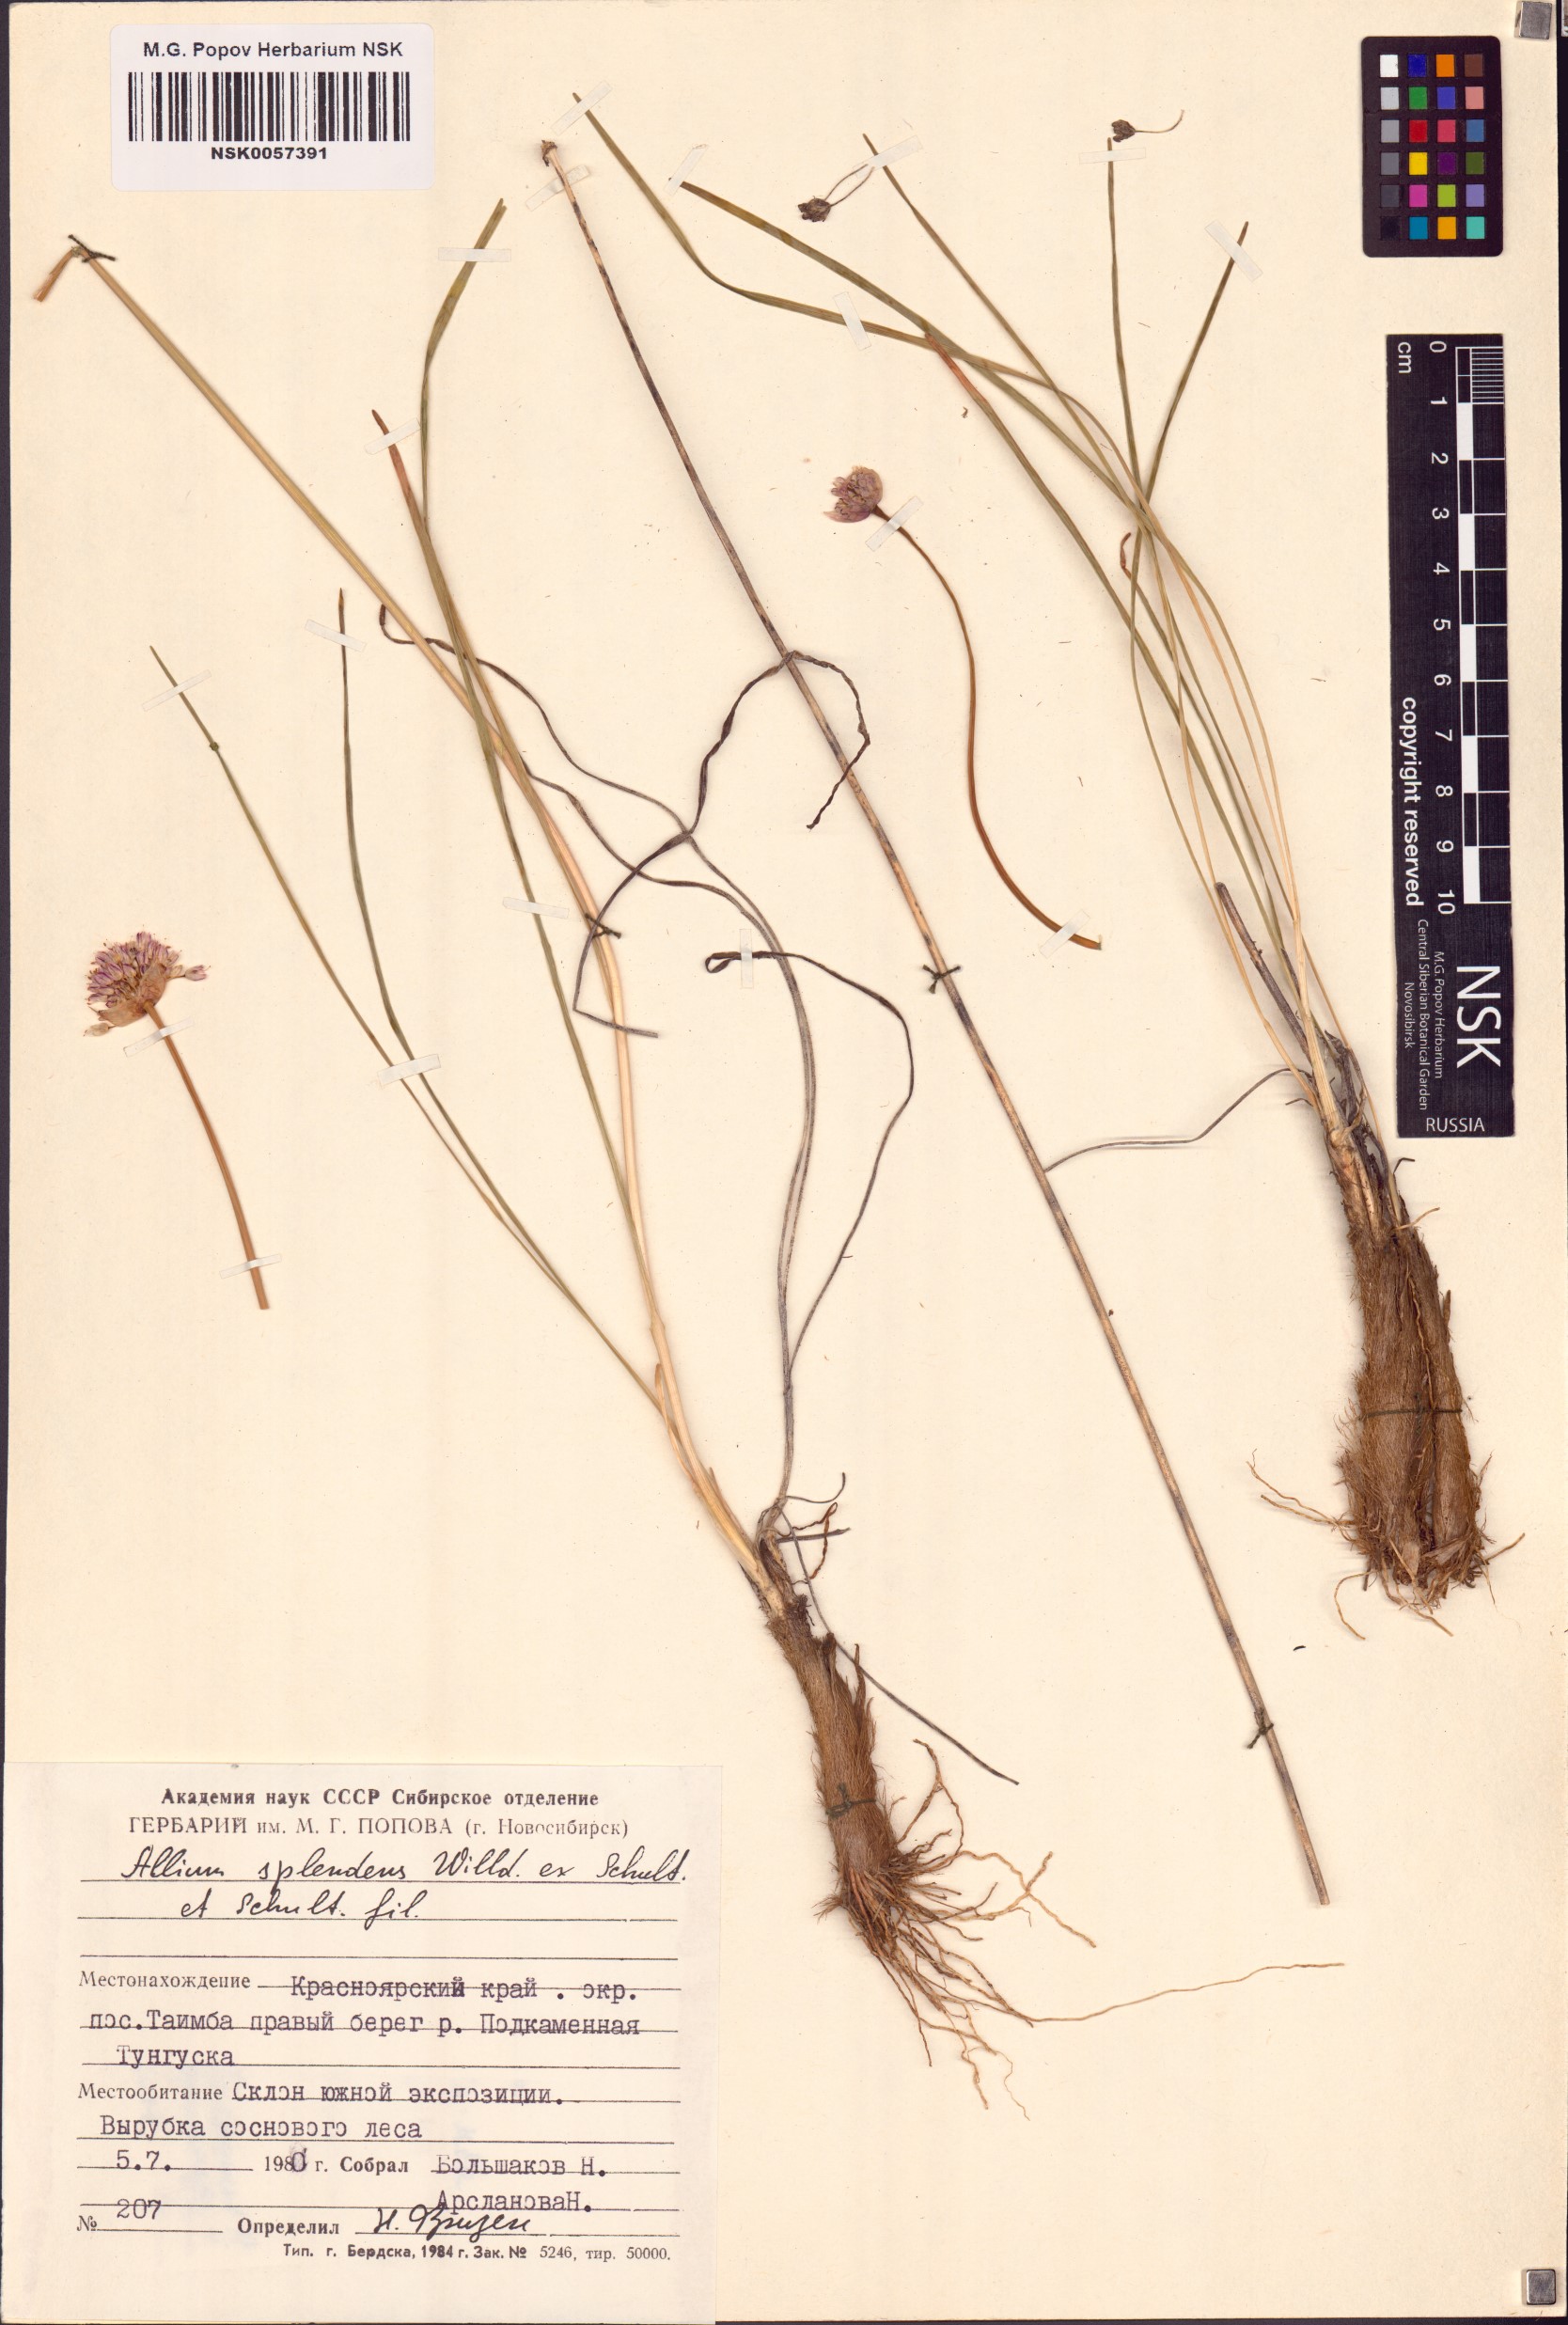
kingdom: Plantae
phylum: Tracheophyta
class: Liliopsida
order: Asparagales
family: Amaryllidaceae
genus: Allium
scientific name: Allium splendens
